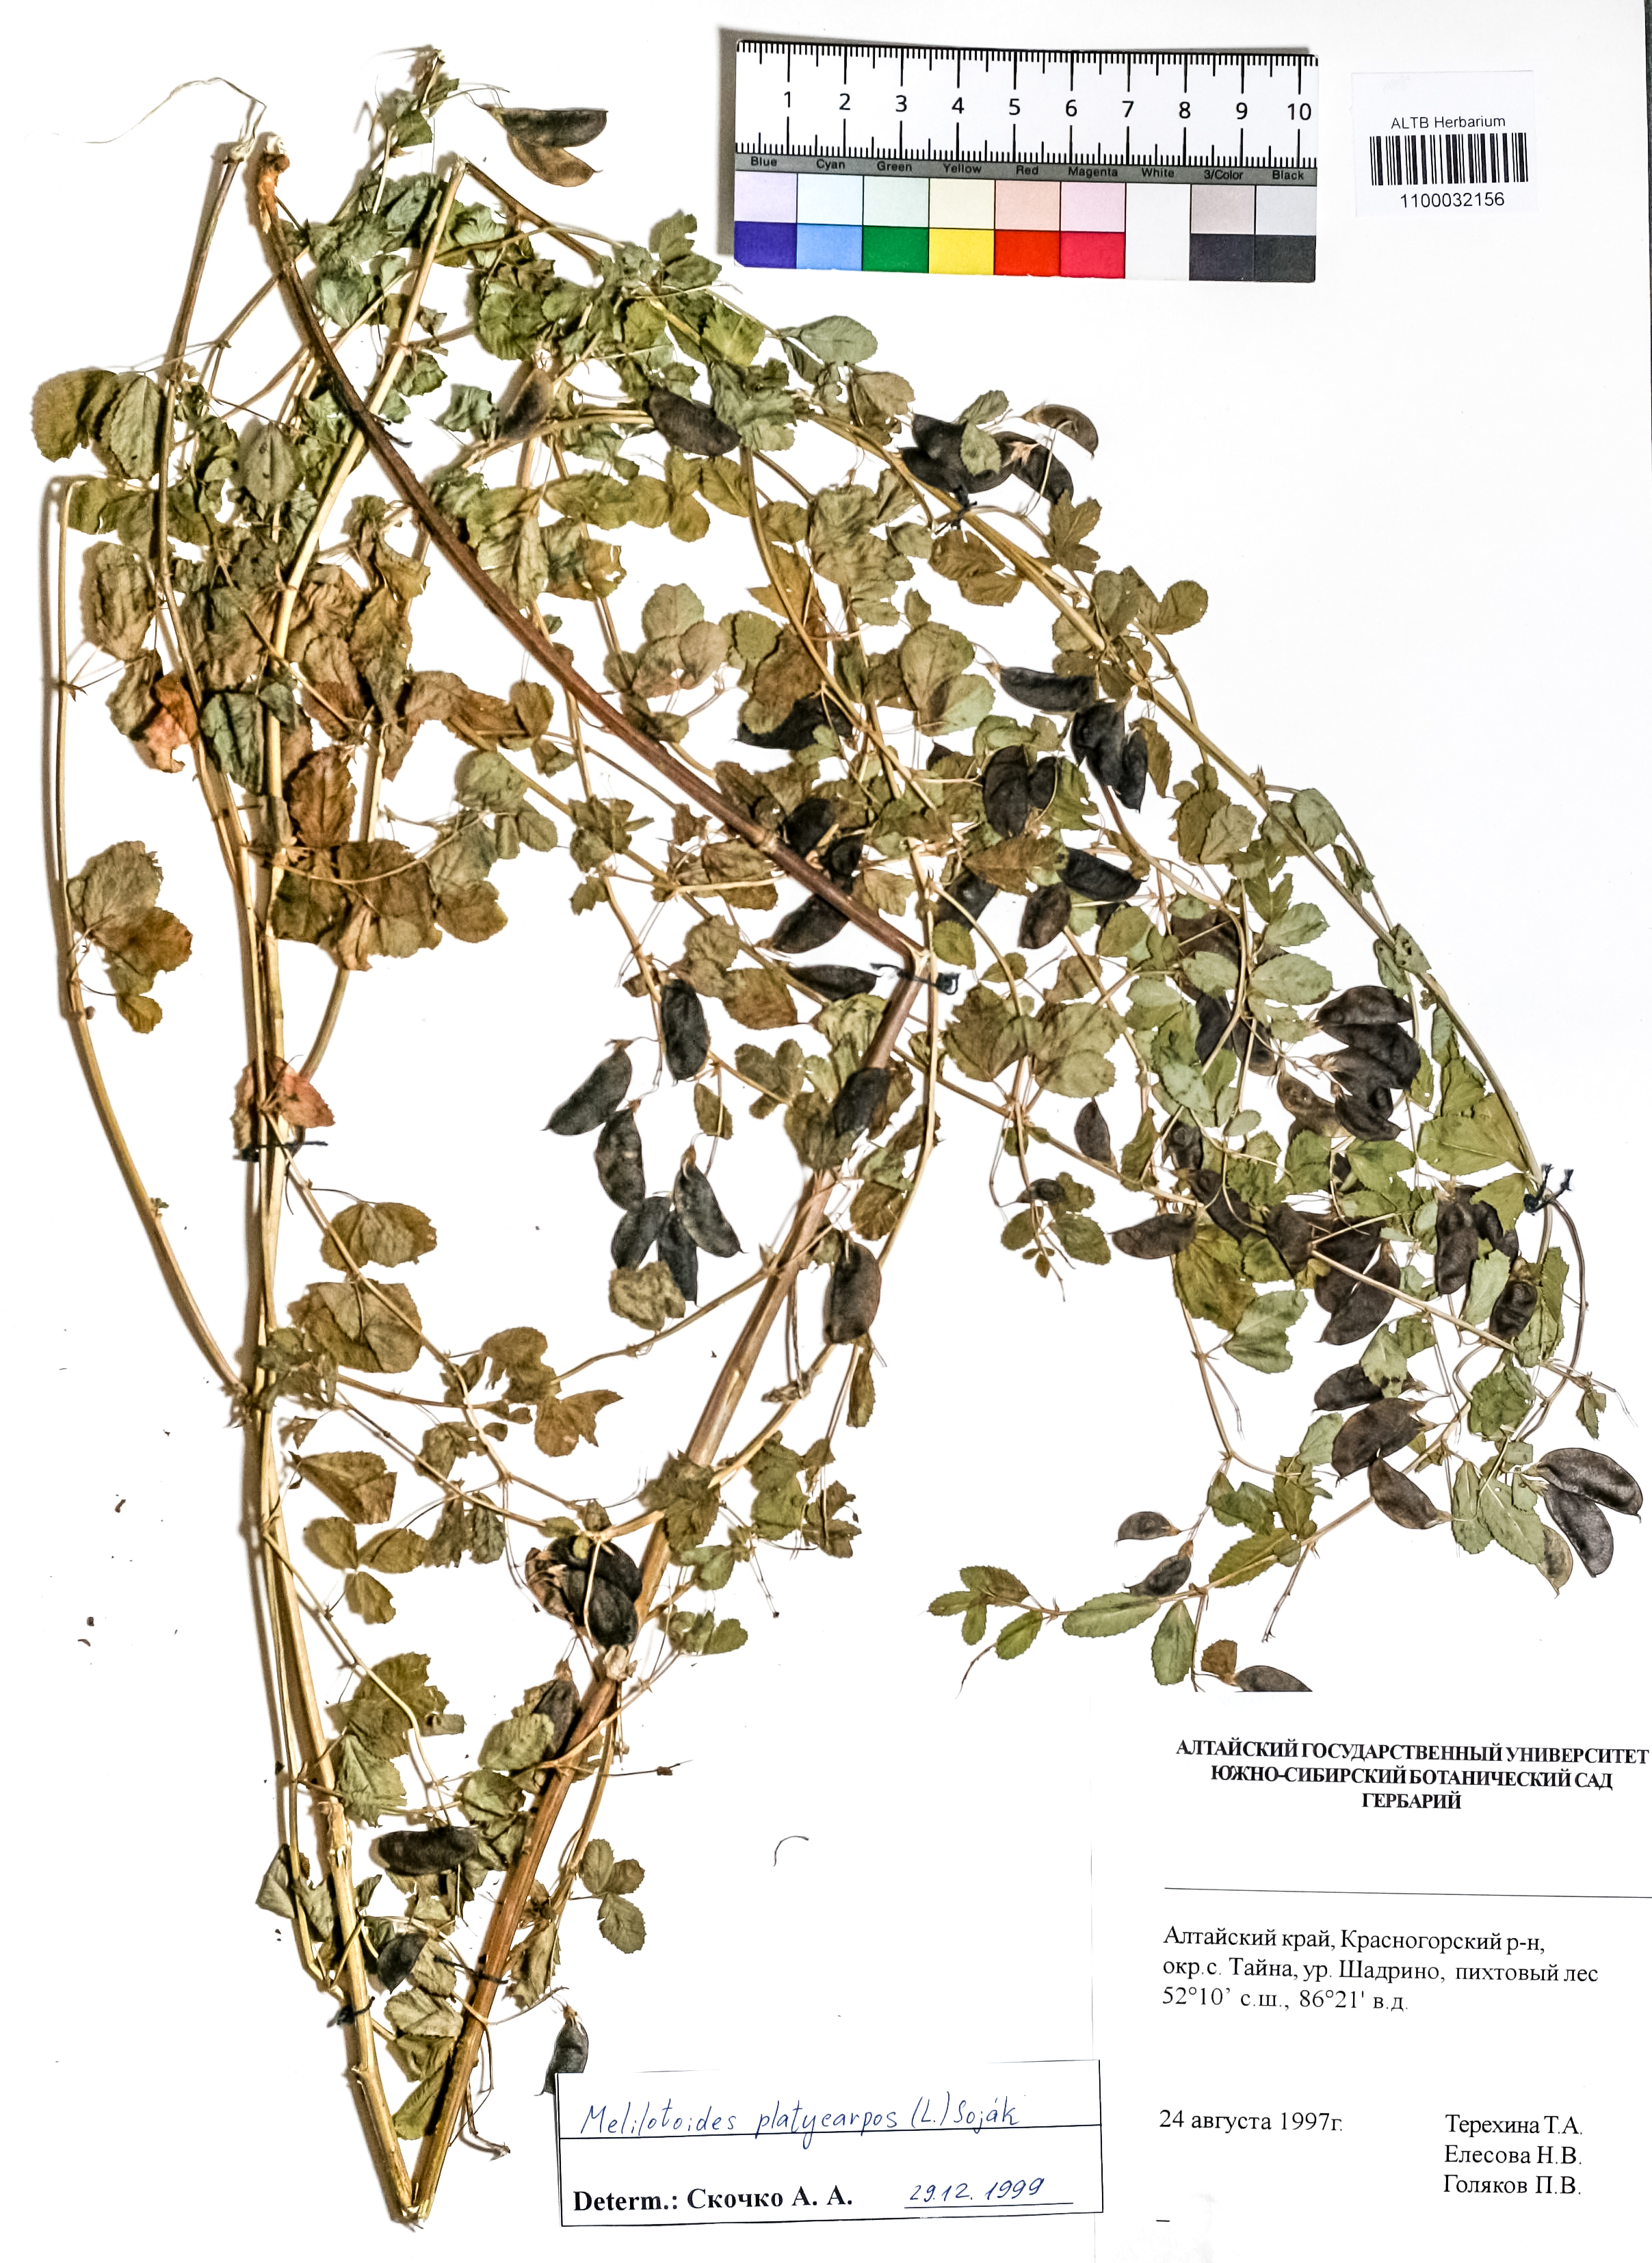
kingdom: Plantae
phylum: Tracheophyta
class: Magnoliopsida
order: Fabales
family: Fabaceae
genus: Medicago
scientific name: Medicago platycarpos
